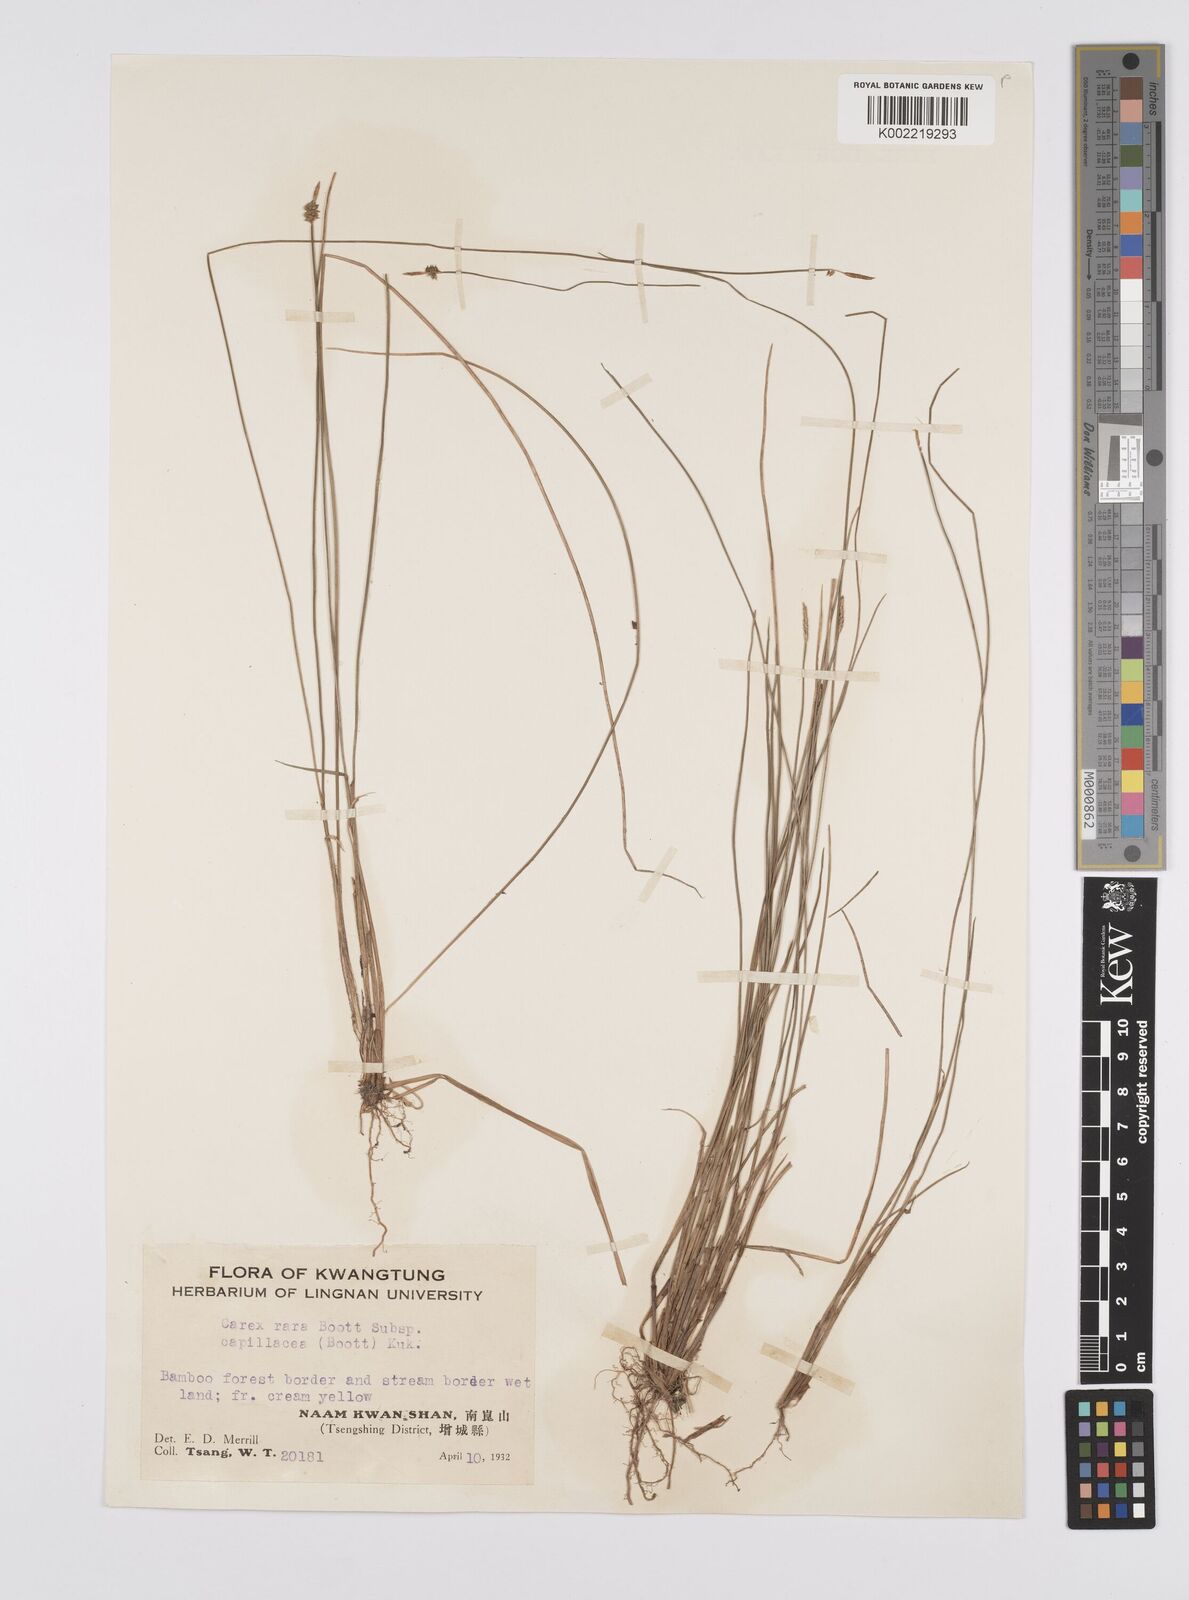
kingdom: Plantae
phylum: Tracheophyta
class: Liliopsida
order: Poales
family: Cyperaceae
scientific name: Cyperaceae
